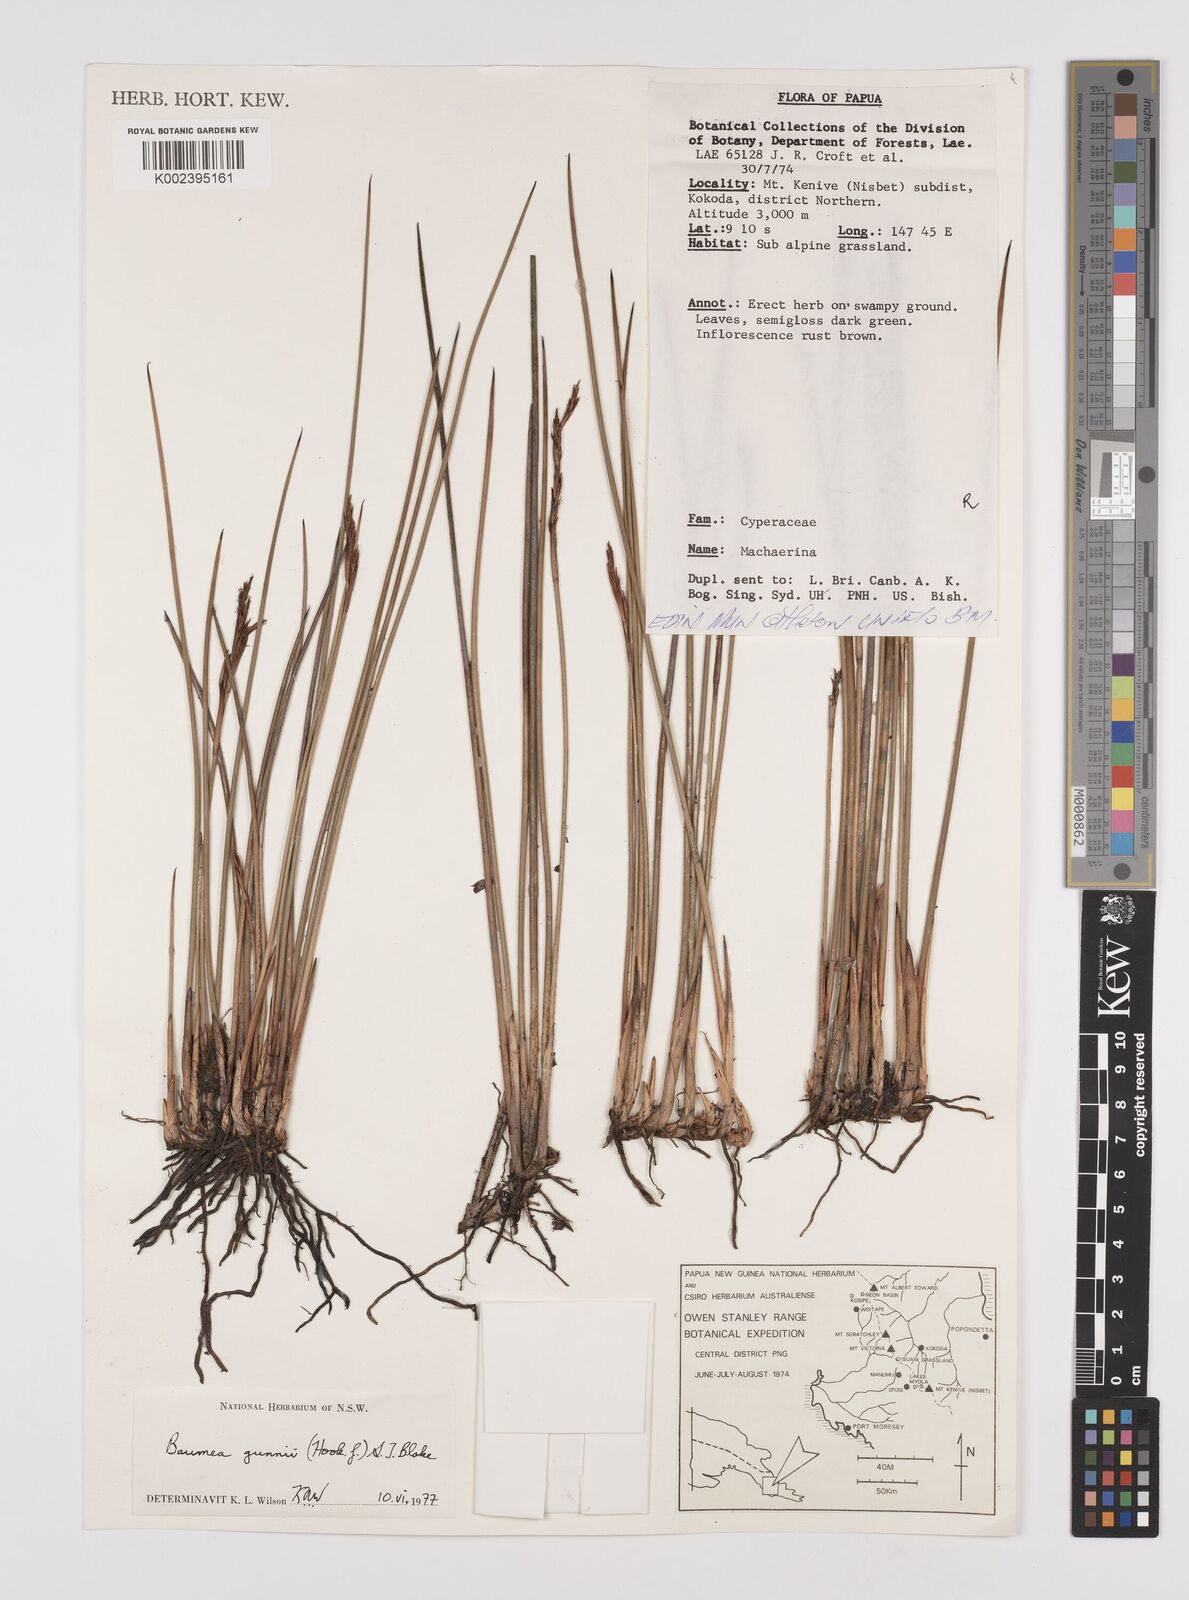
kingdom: Plantae
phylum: Tracheophyta
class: Liliopsida
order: Poales
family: Cyperaceae
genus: Machaerina
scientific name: Machaerina gunnii
